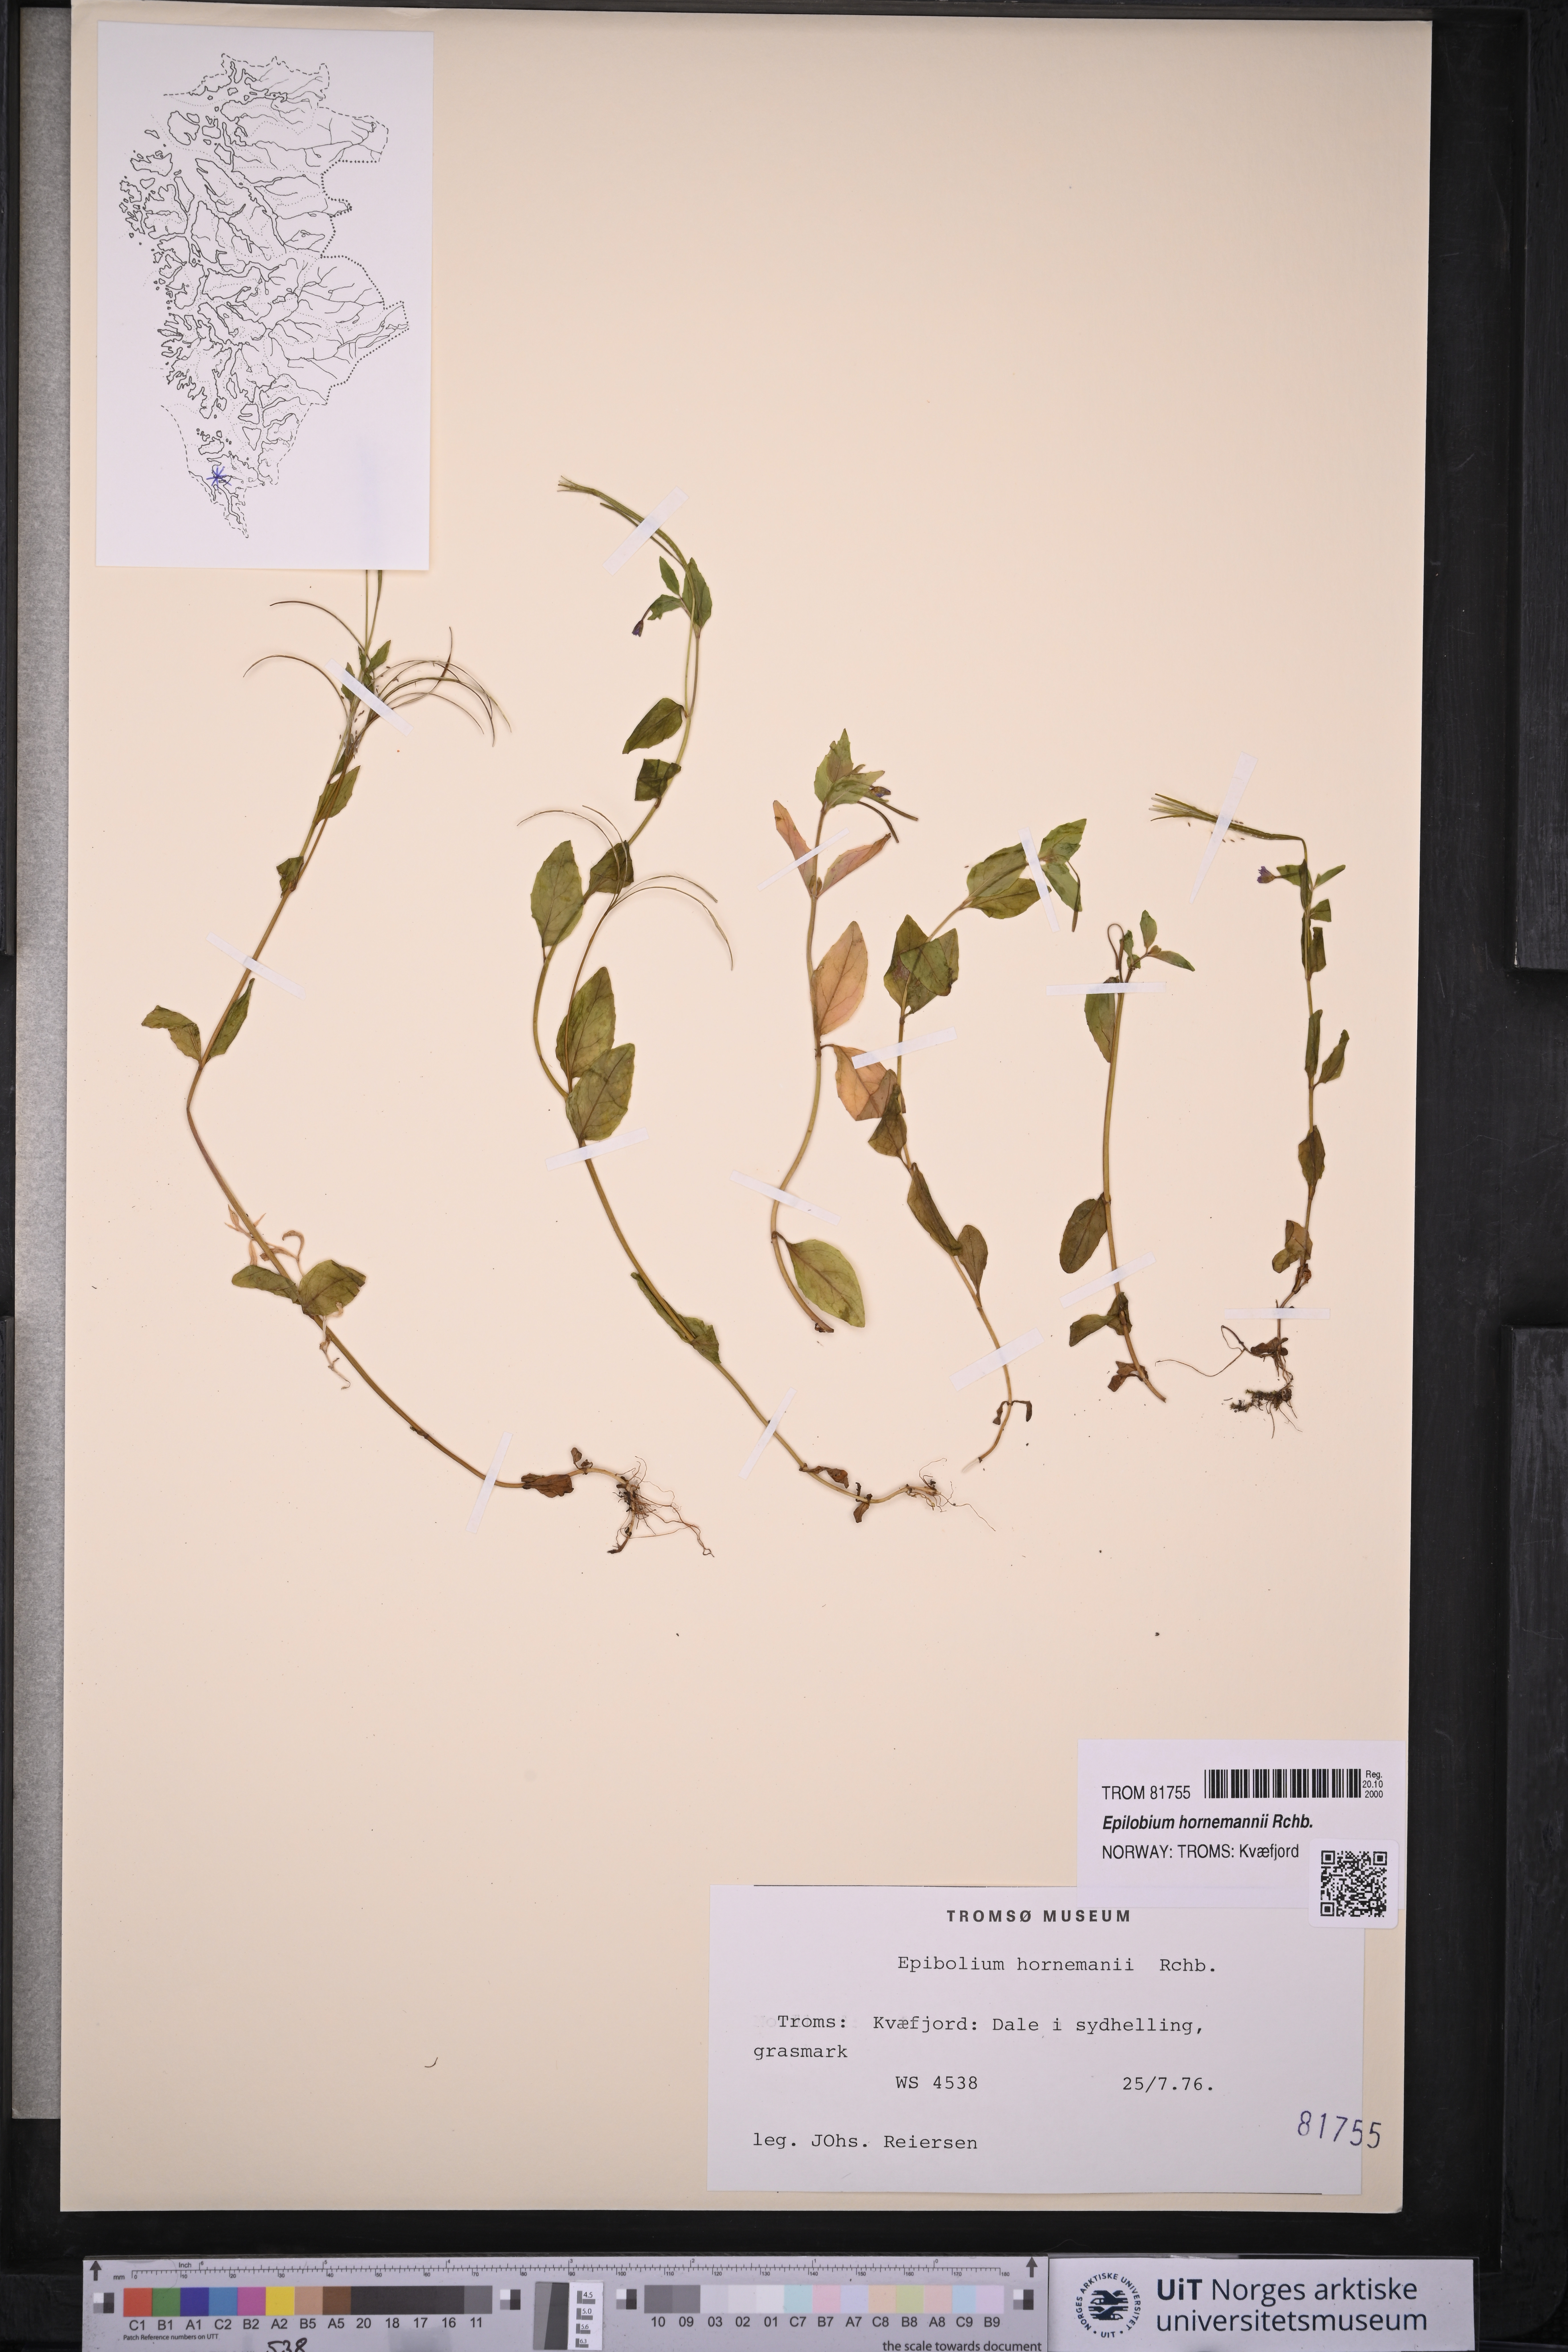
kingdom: Plantae
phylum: Tracheophyta
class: Magnoliopsida
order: Myrtales
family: Onagraceae
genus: Epilobium
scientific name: Epilobium hornemannii
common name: Hornemann's willowherb
